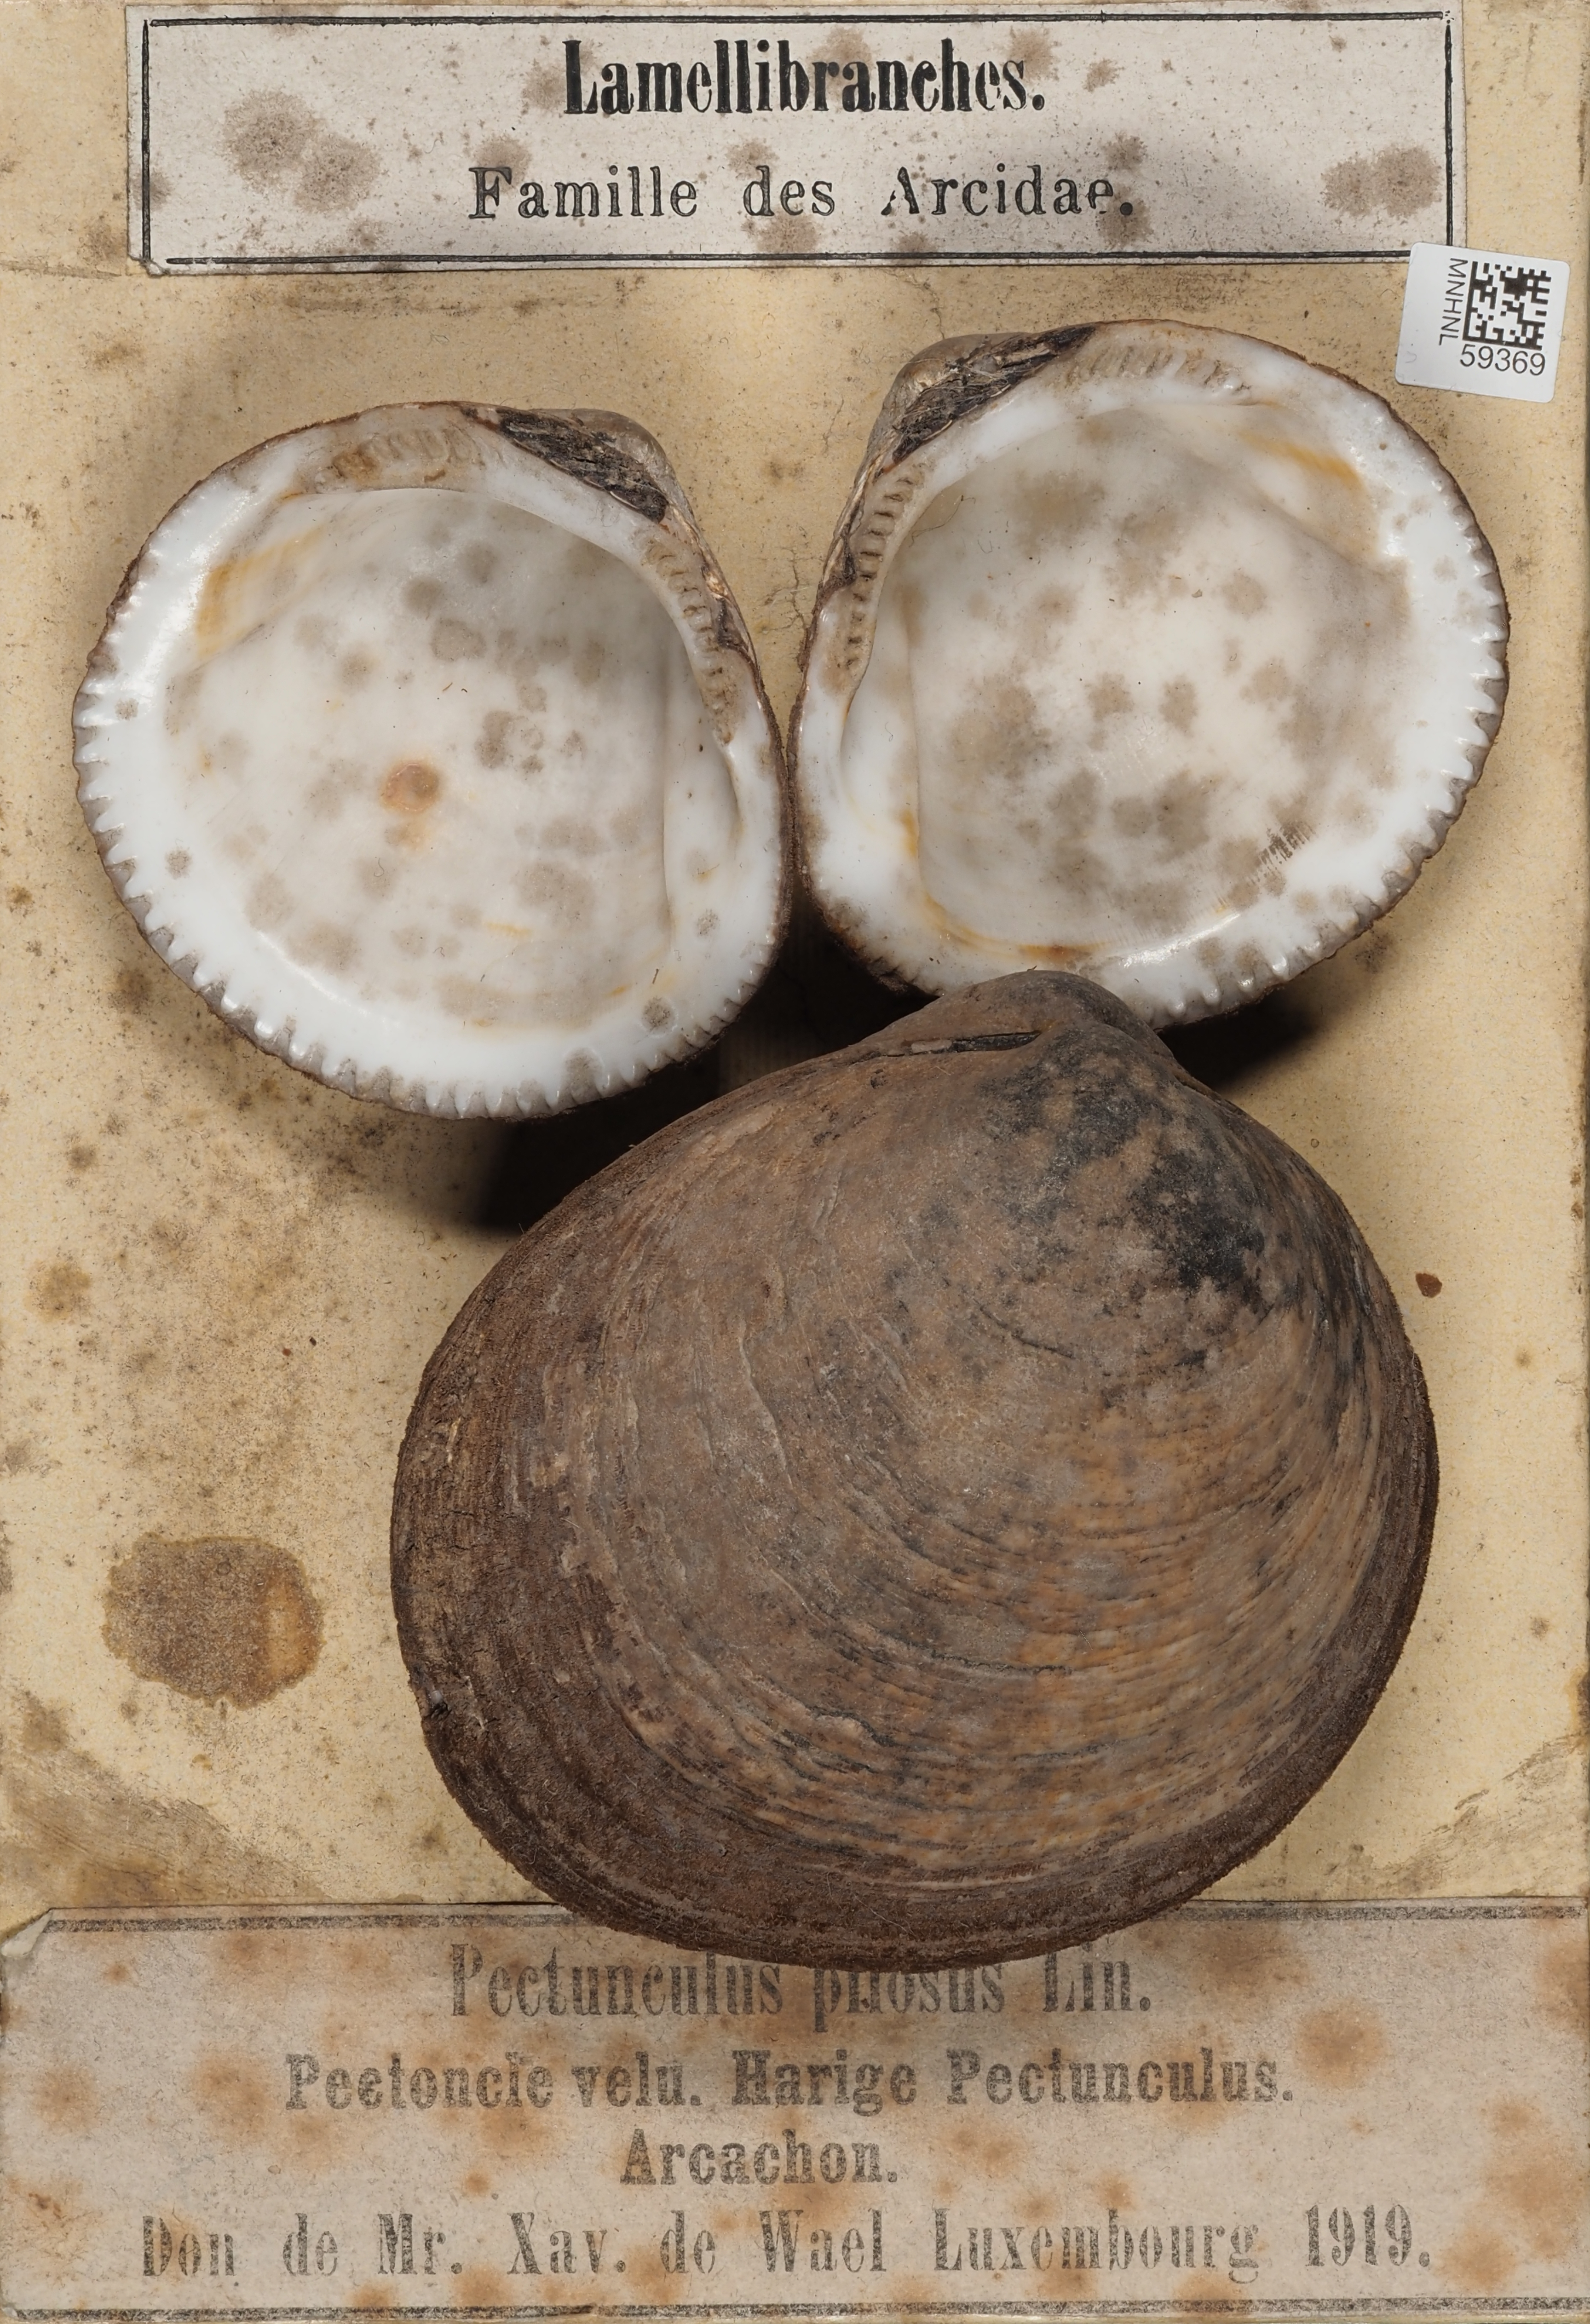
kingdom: Animalia
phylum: Mollusca
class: Bivalvia
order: Arcida
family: Glycymerididae
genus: Glycymeris
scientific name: Glycymeris pilosa
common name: Hairy bittersweet
